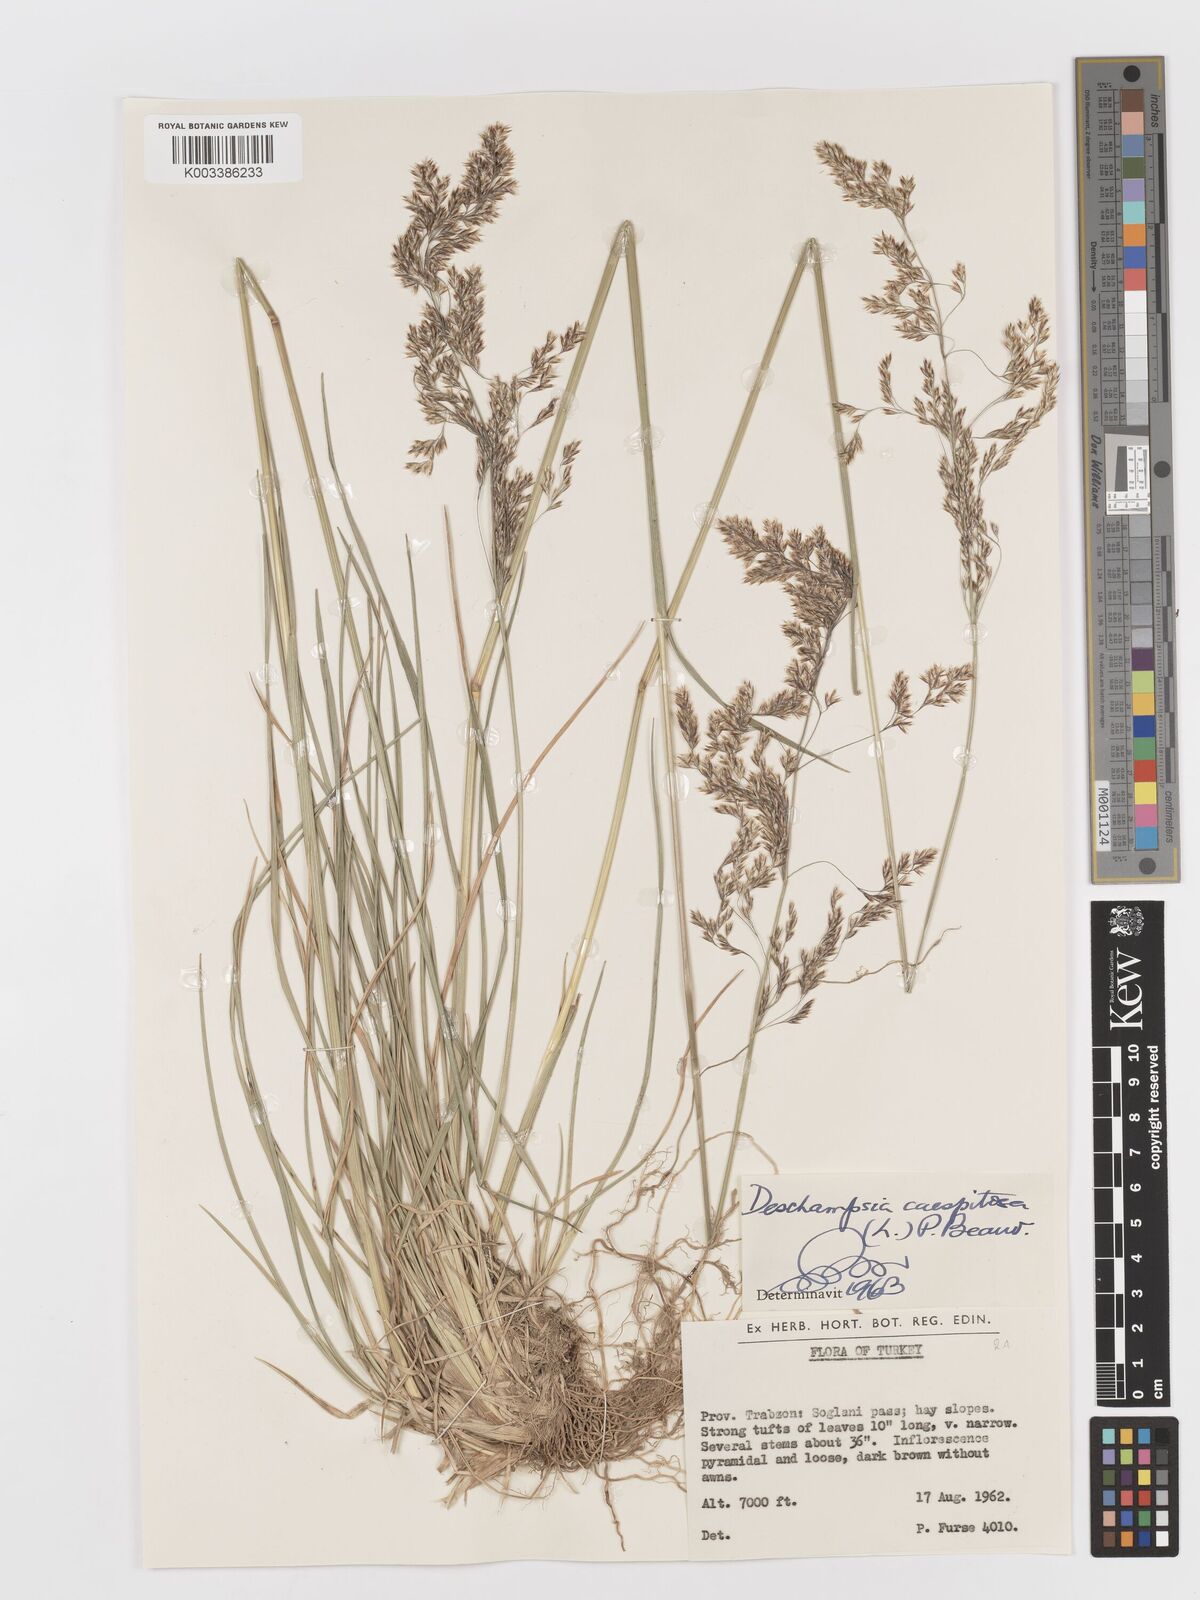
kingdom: Plantae
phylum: Tracheophyta
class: Liliopsida
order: Poales
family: Poaceae
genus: Deschampsia
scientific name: Deschampsia cespitosa
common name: Tufted hair-grass
